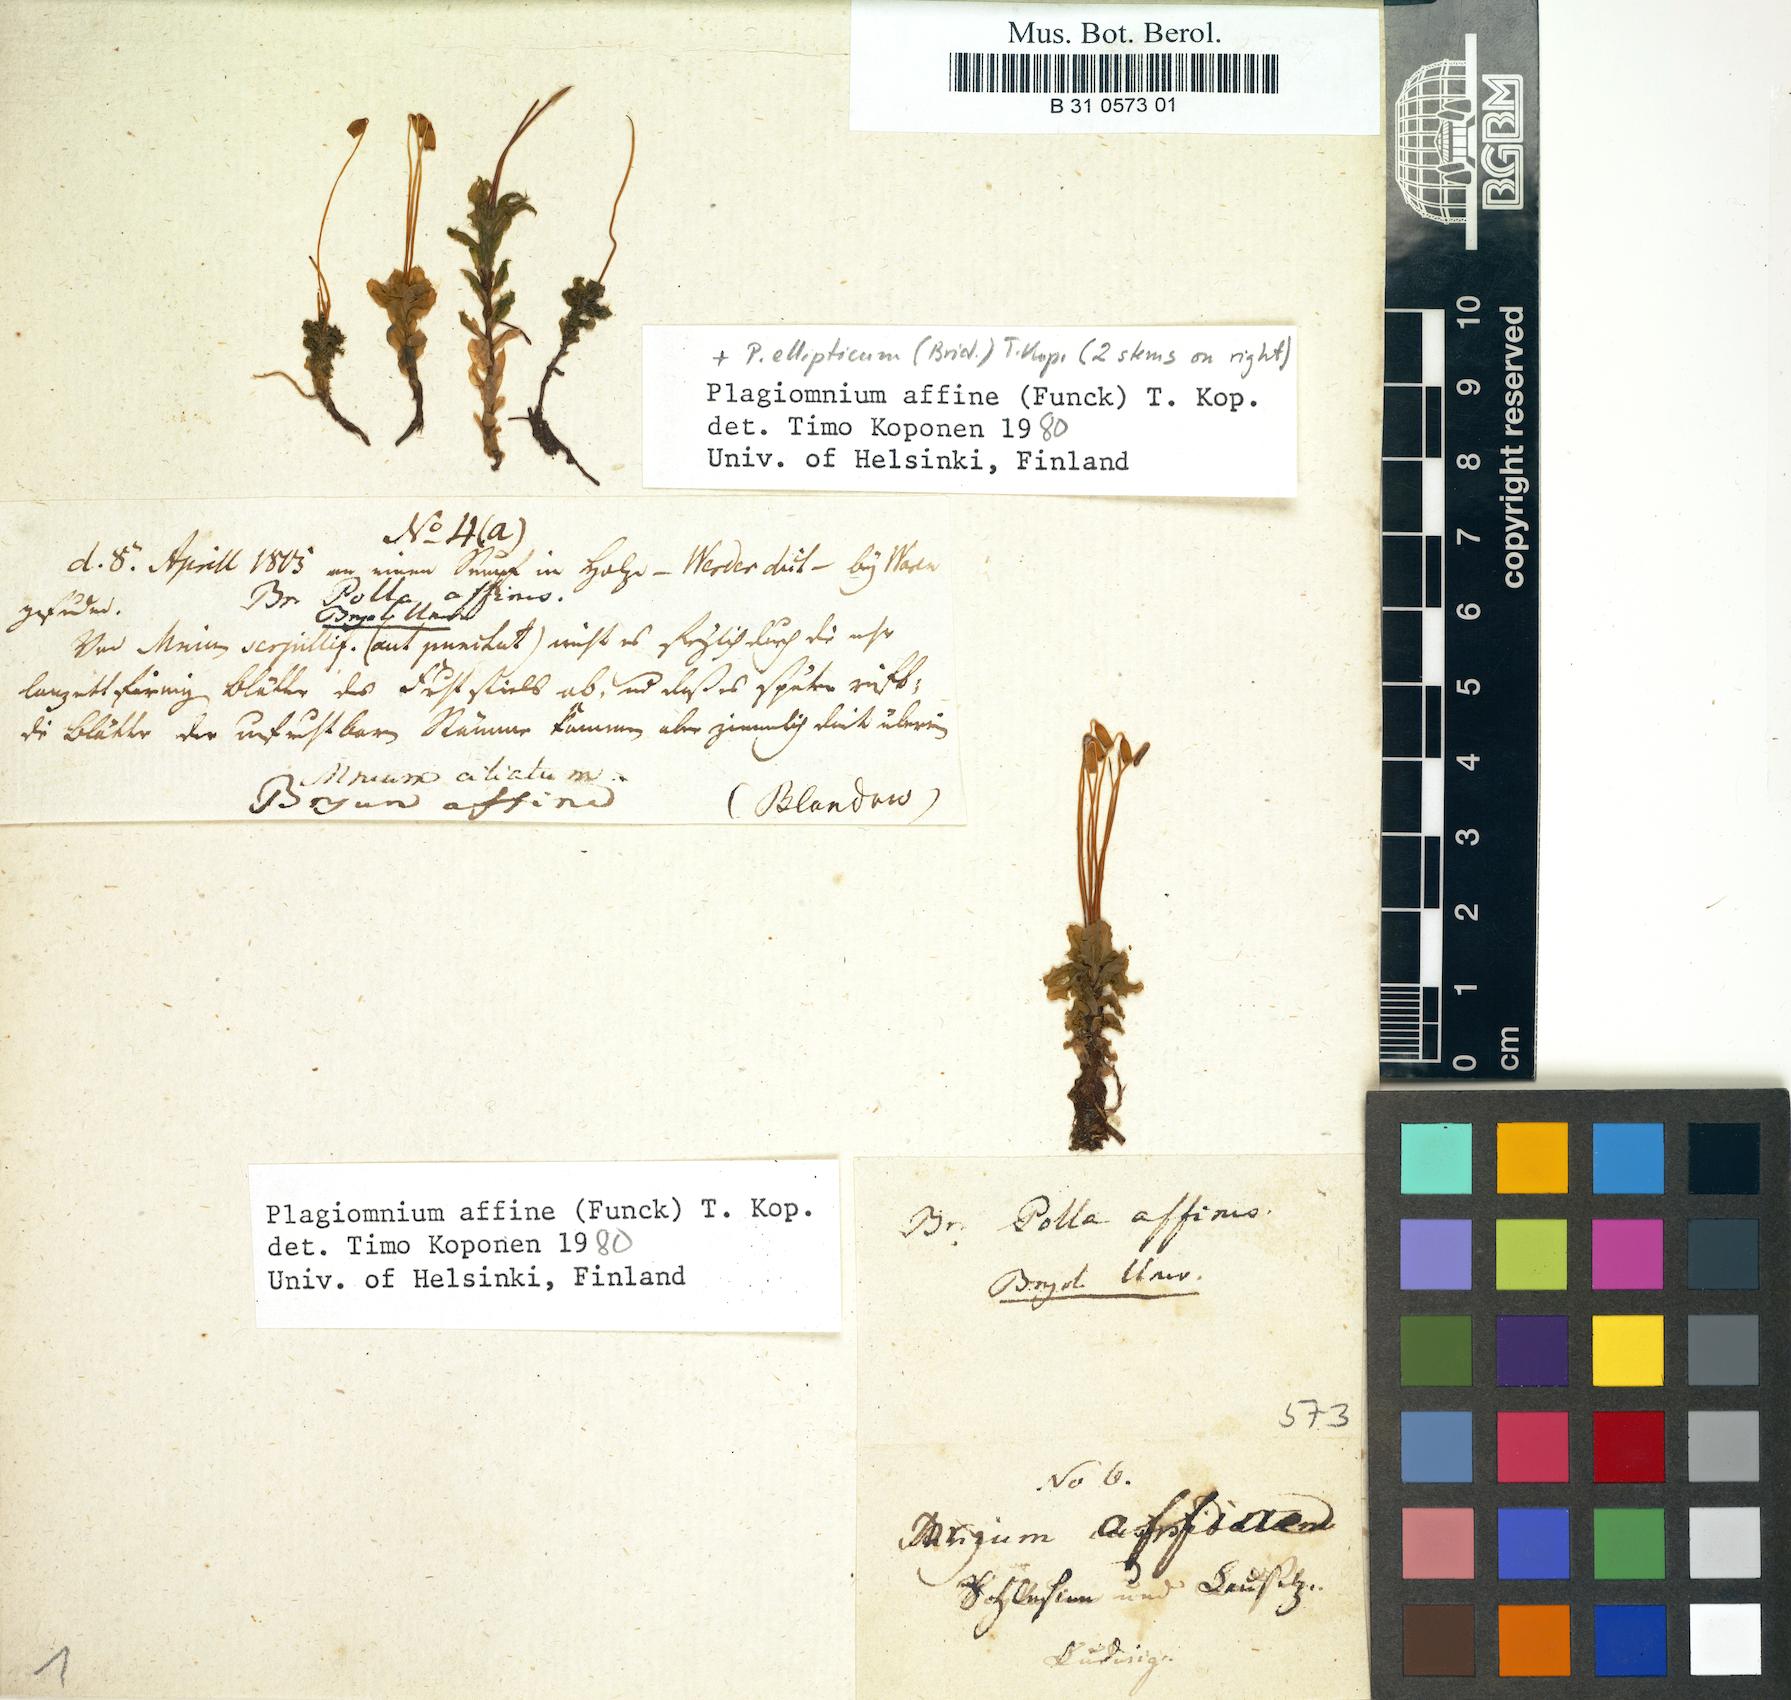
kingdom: Plantae
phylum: Bryophyta
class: Bryopsida
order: Bryales
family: Mniaceae
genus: Plagiomnium
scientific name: Plagiomnium affine
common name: Many-fruited thyme-moss
